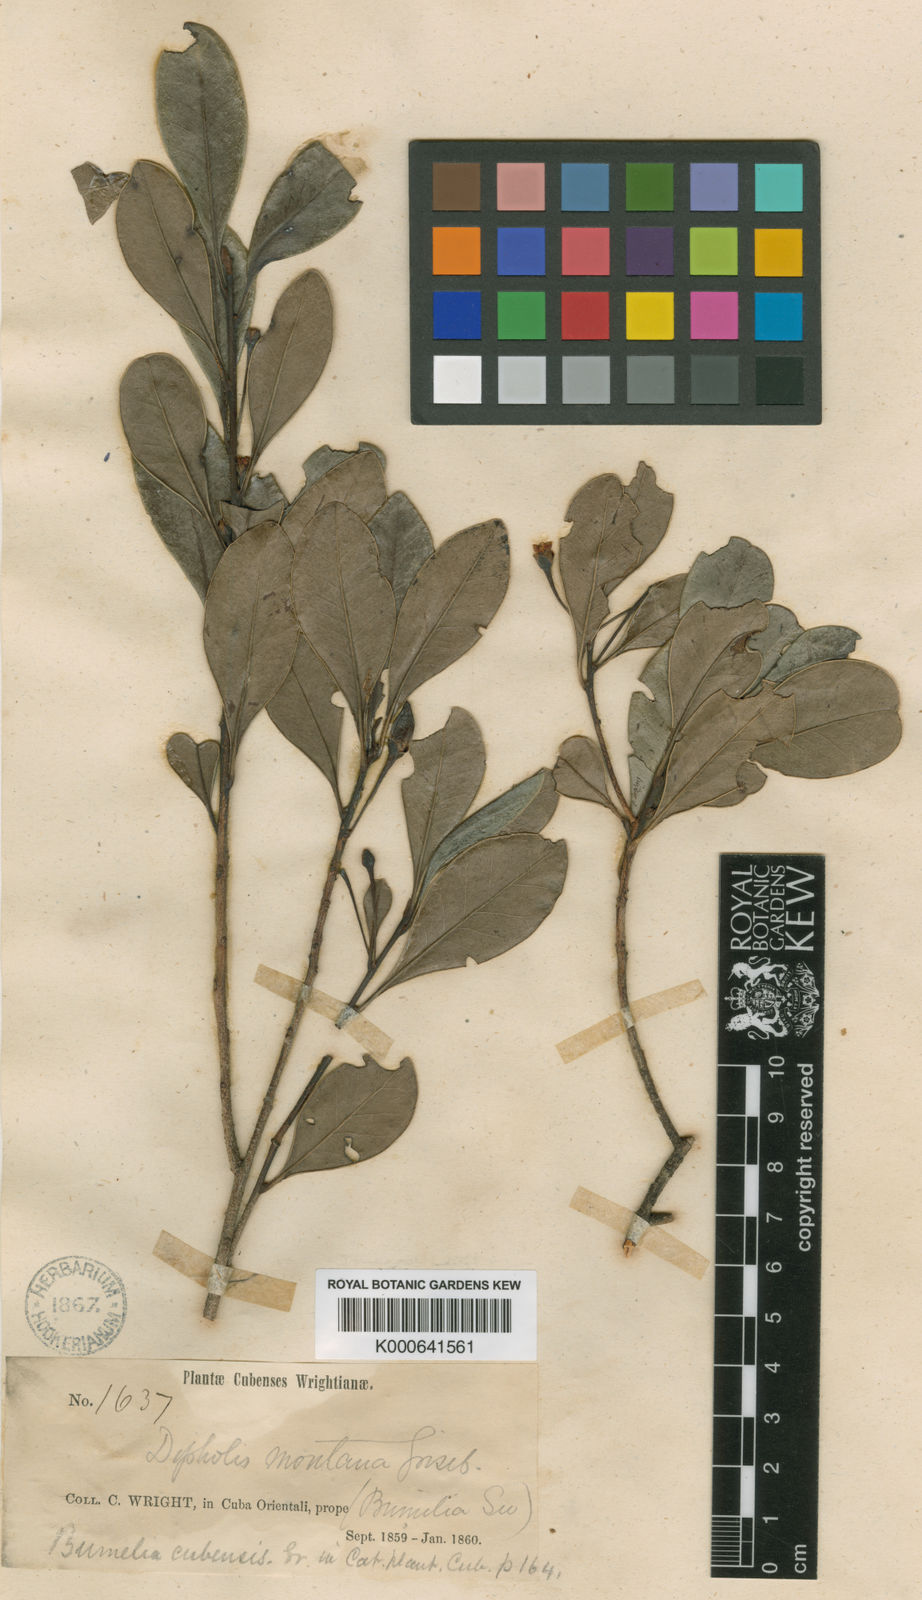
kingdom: Plantae
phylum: Tracheophyta
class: Magnoliopsida
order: Ericales
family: Sapotaceae
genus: Sideroxylon
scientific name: Sideroxylon cubense
